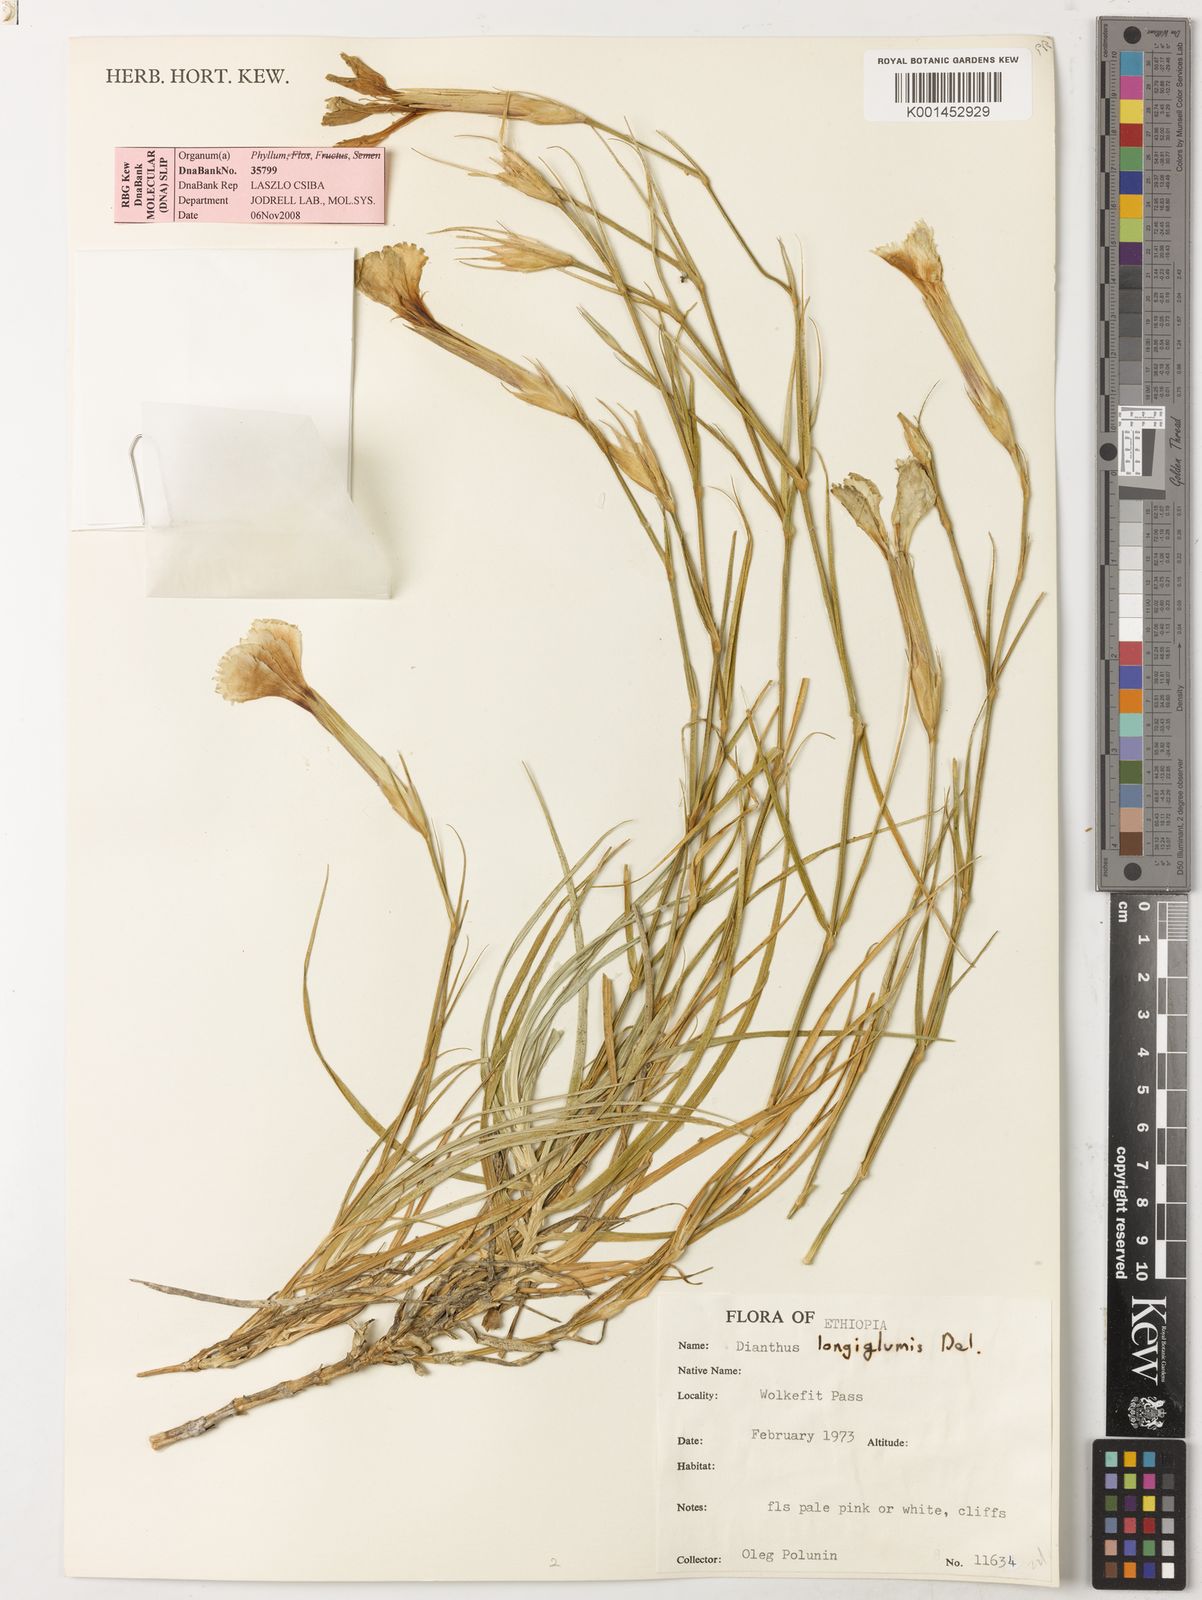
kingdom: Plantae
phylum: Tracheophyta
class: Magnoliopsida
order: Caryophyllales
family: Caryophyllaceae
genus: Dianthus
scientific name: Dianthus longiglumis
